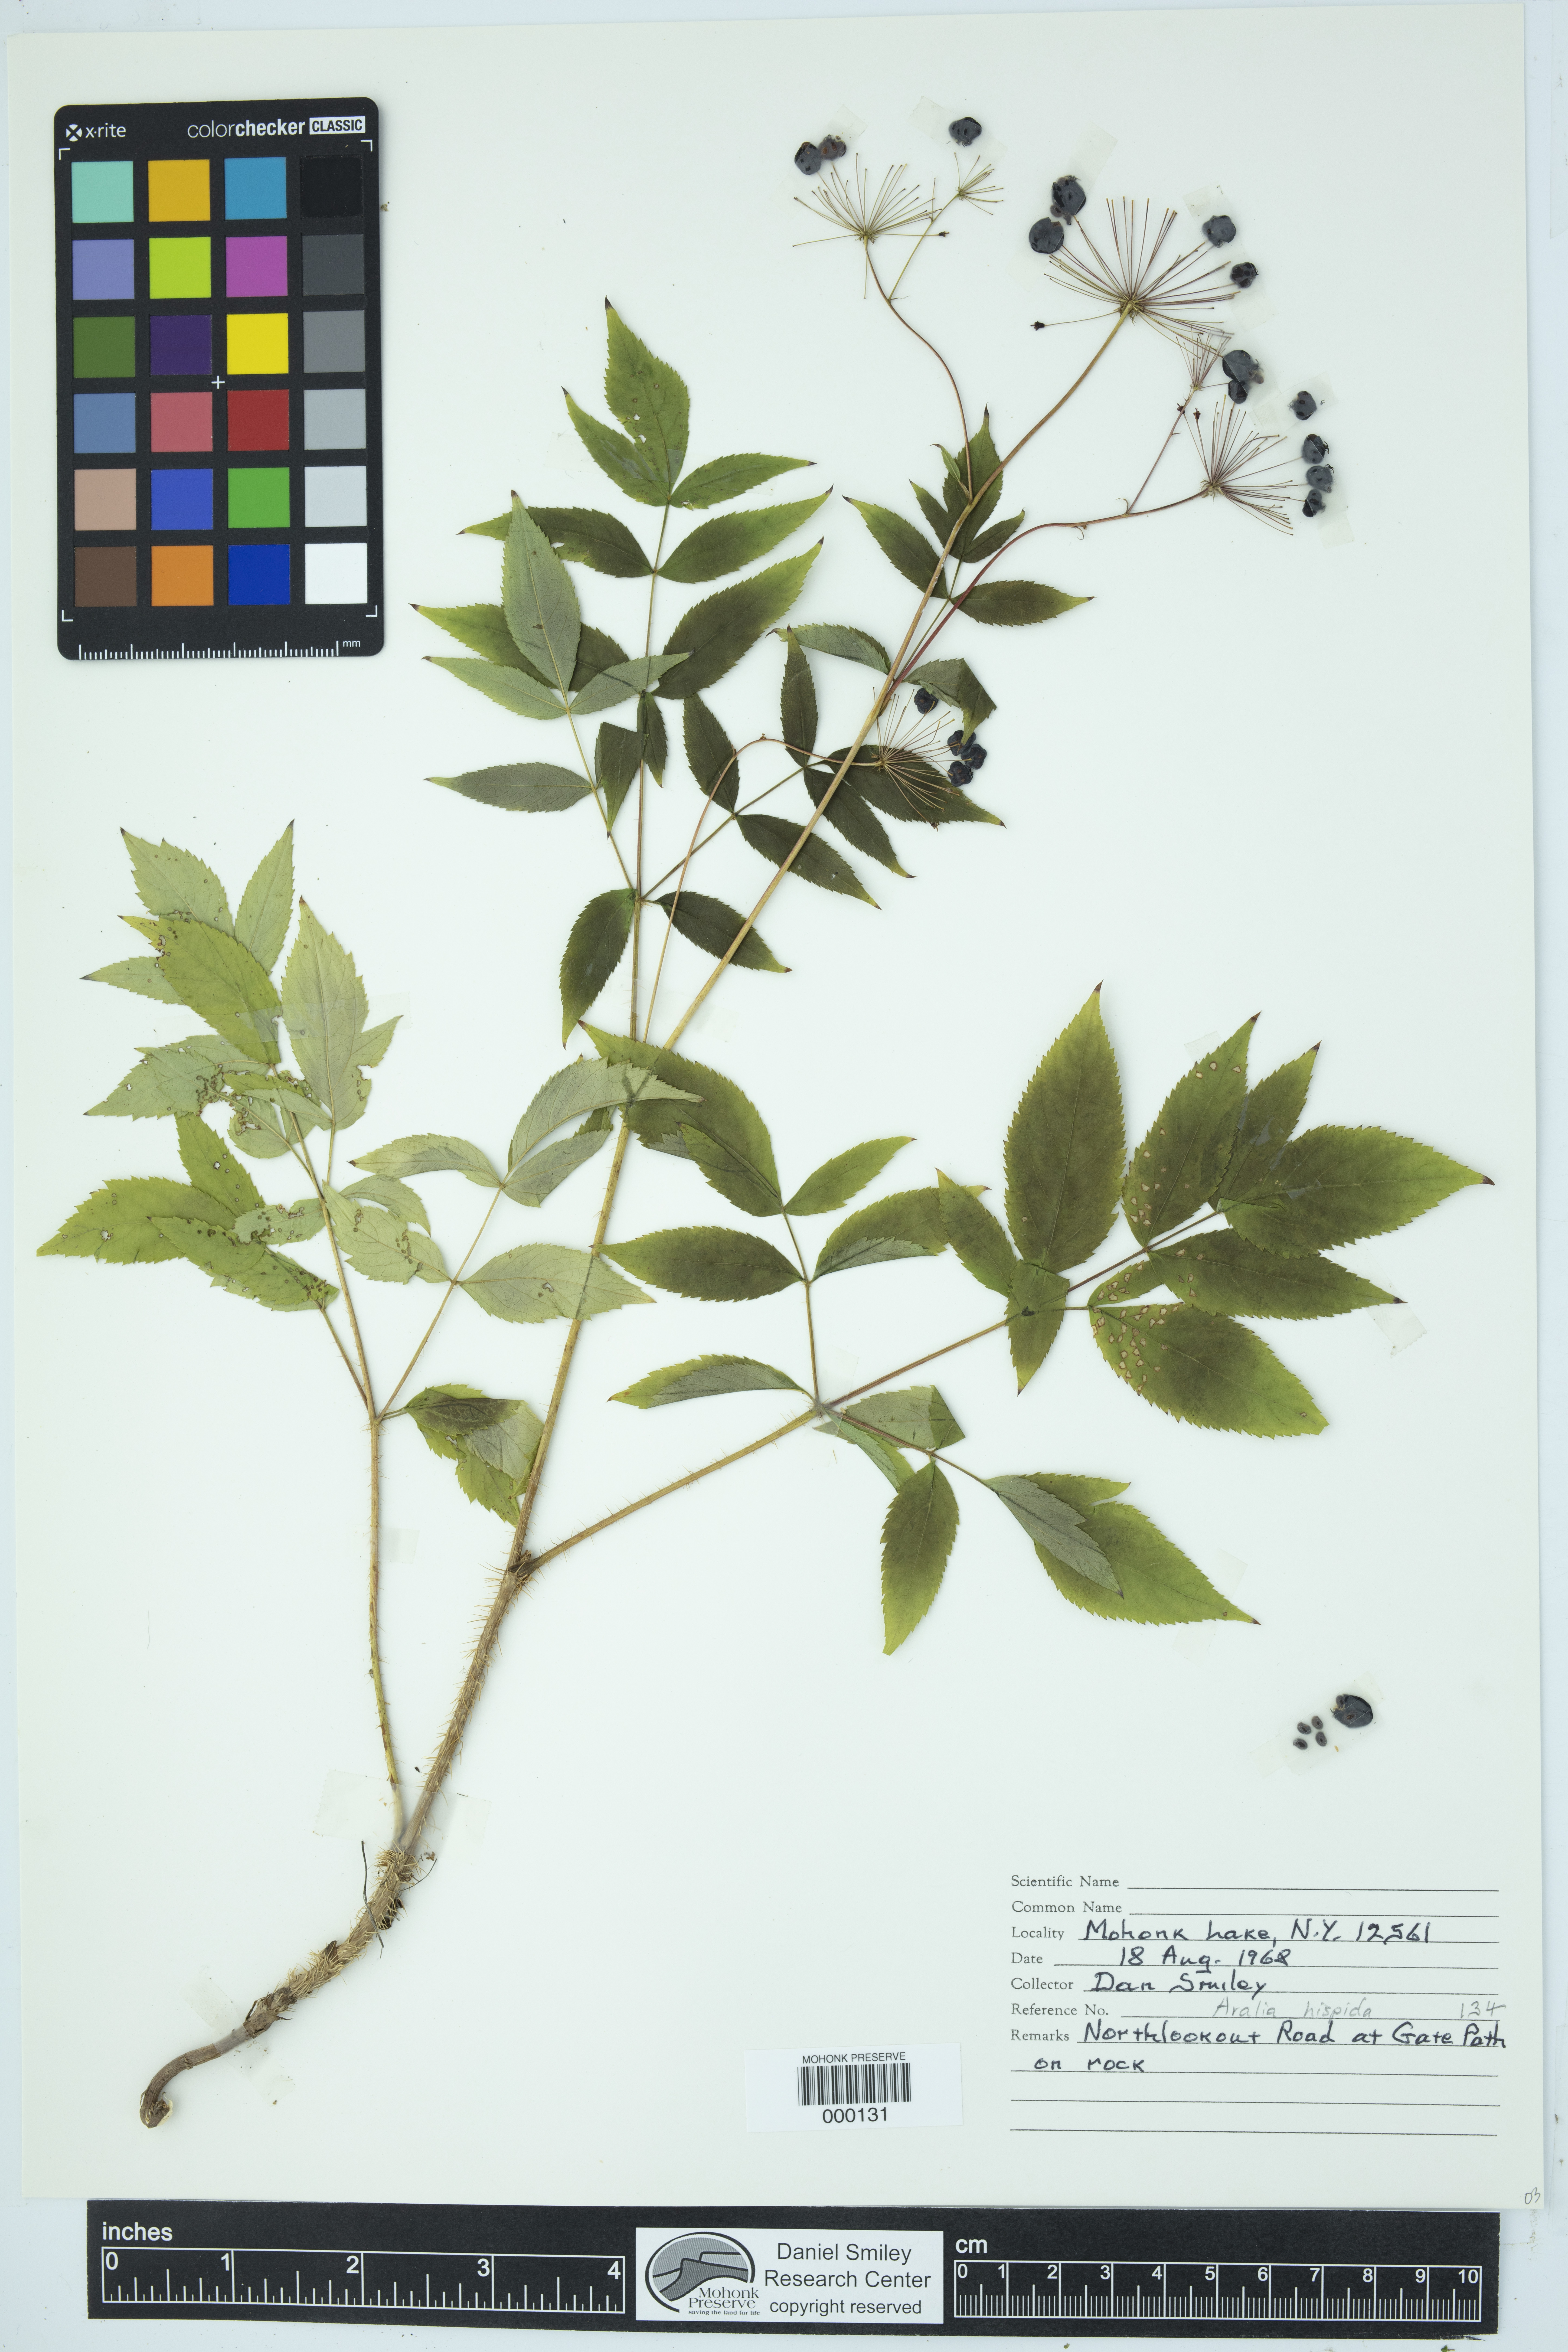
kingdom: Plantae
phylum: Tracheophyta
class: Magnoliopsida
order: Apiales
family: Araliaceae
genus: Aralia
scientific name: Aralia hispida
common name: Bristly sarsaparilla
